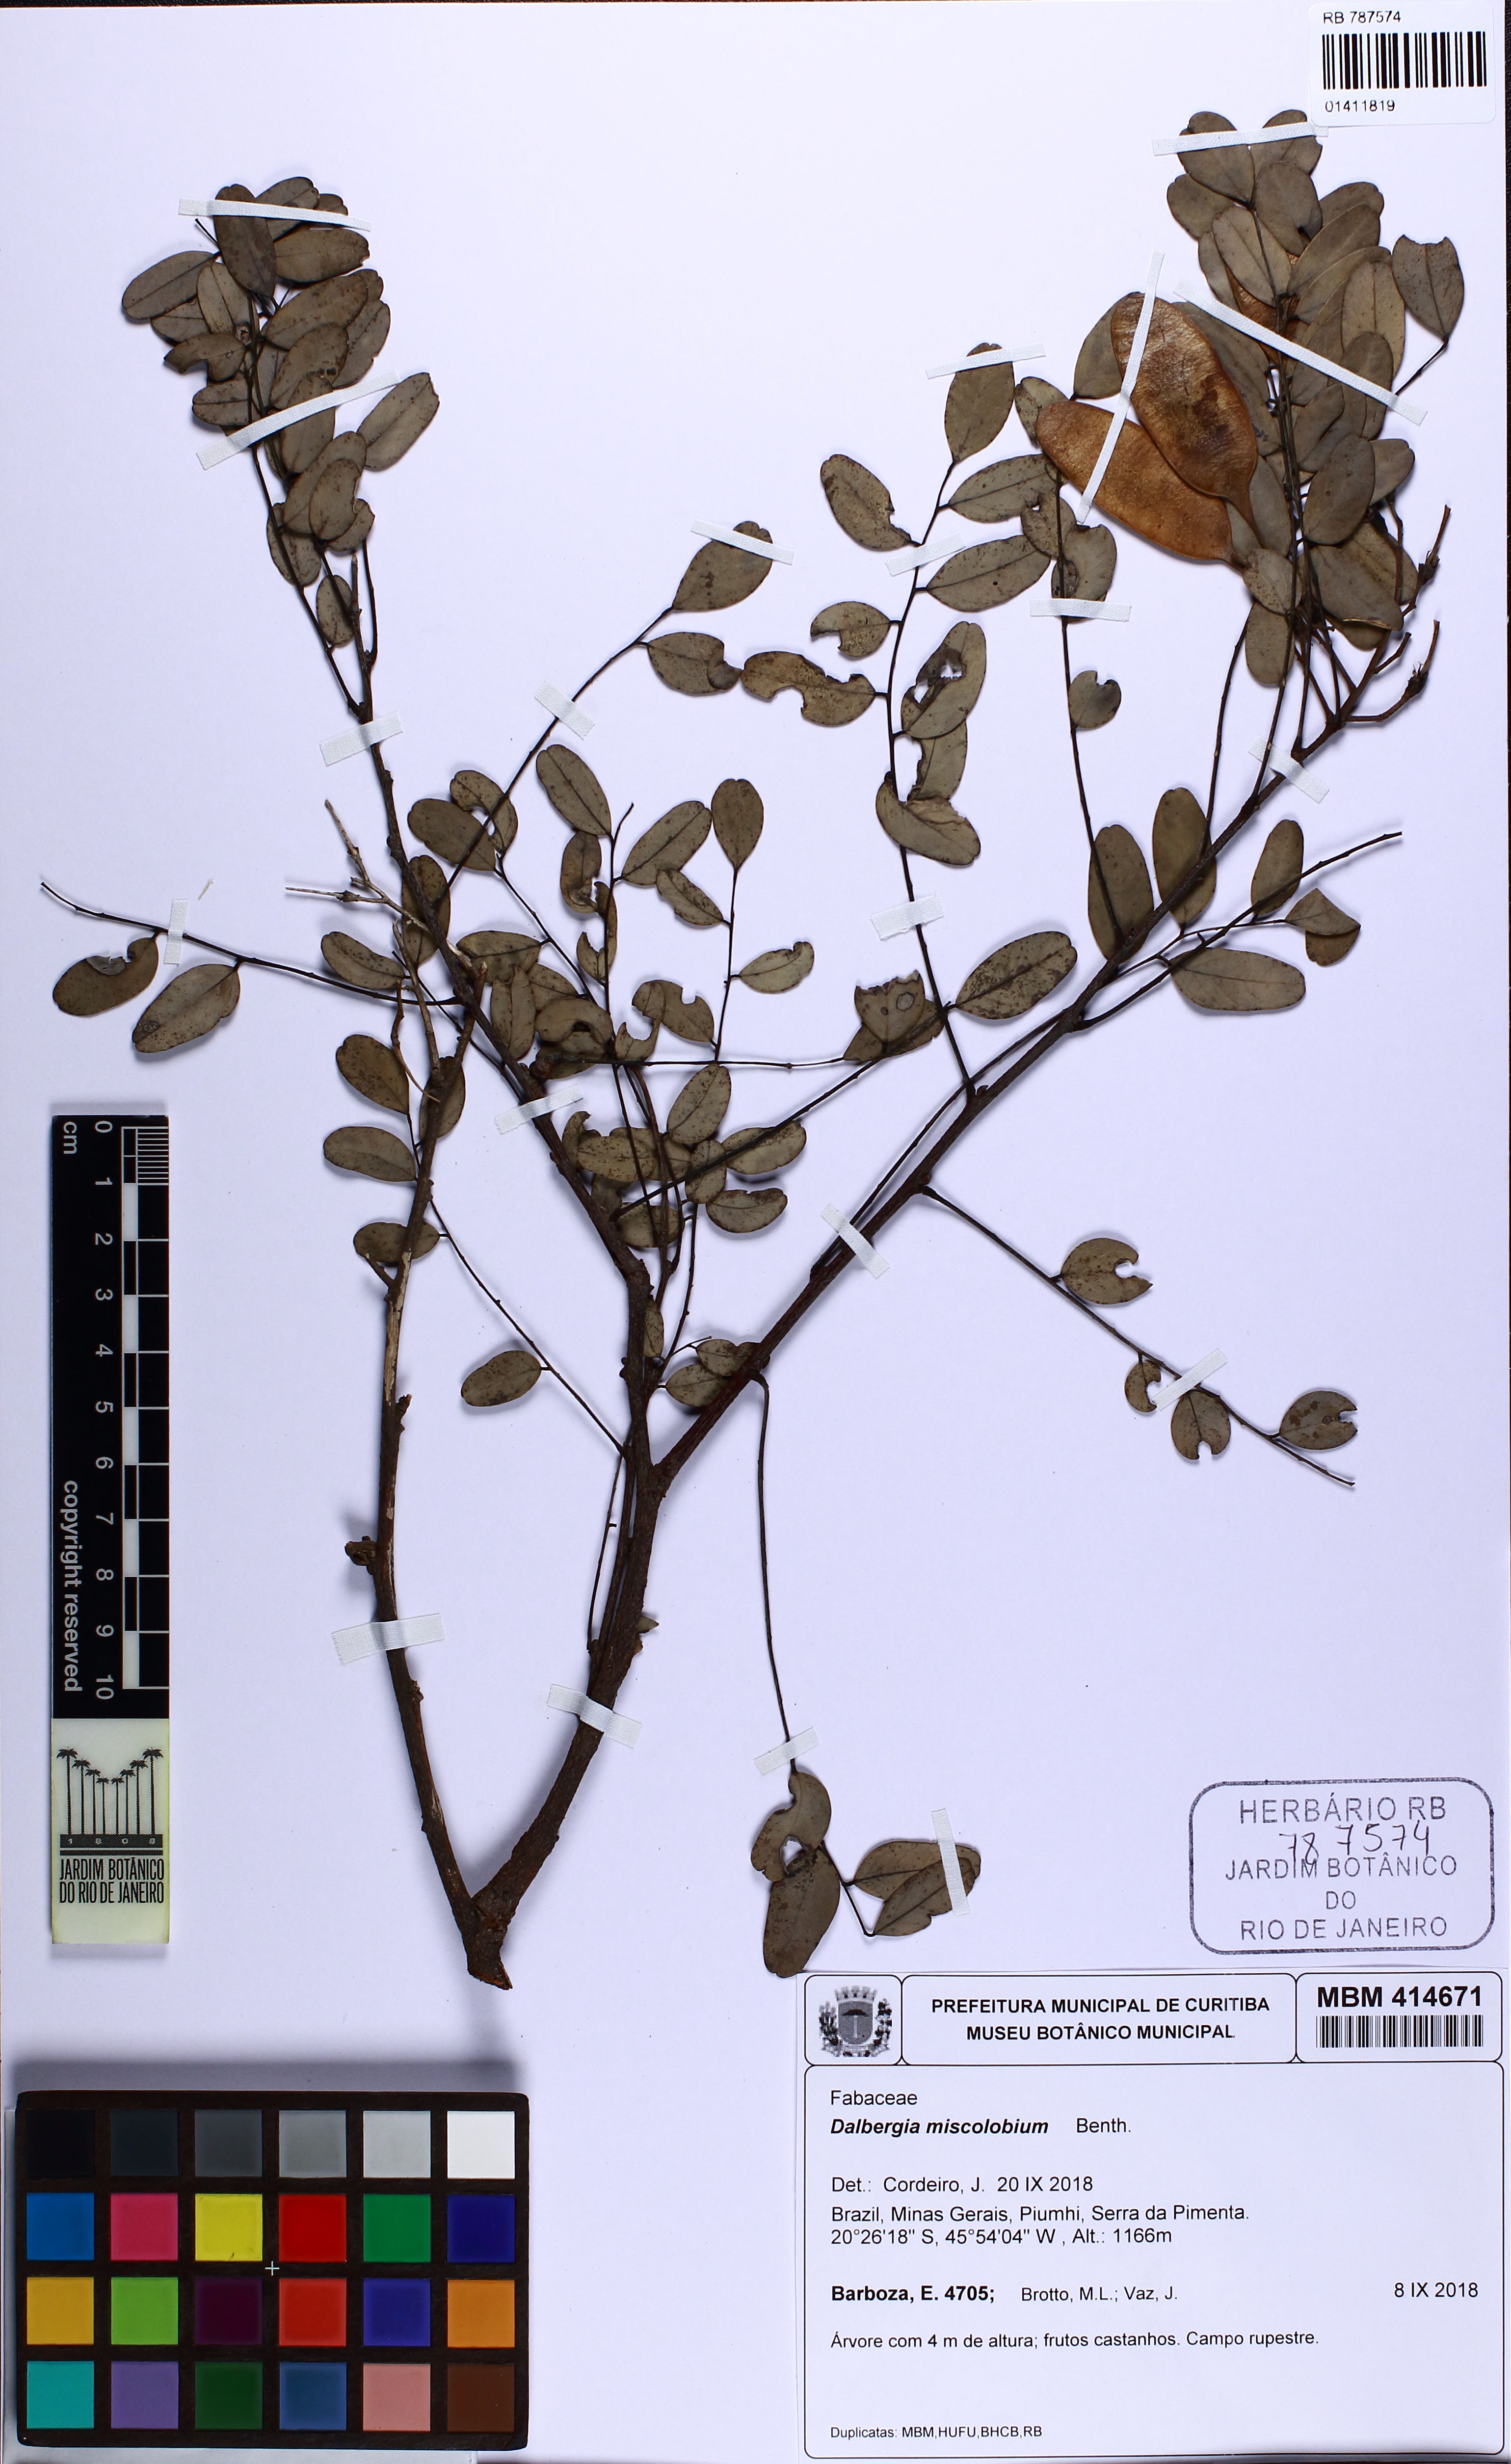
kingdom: Plantae
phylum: Tracheophyta
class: Magnoliopsida
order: Fabales
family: Fabaceae
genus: Dalbergia
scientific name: Dalbergia miscolobium
